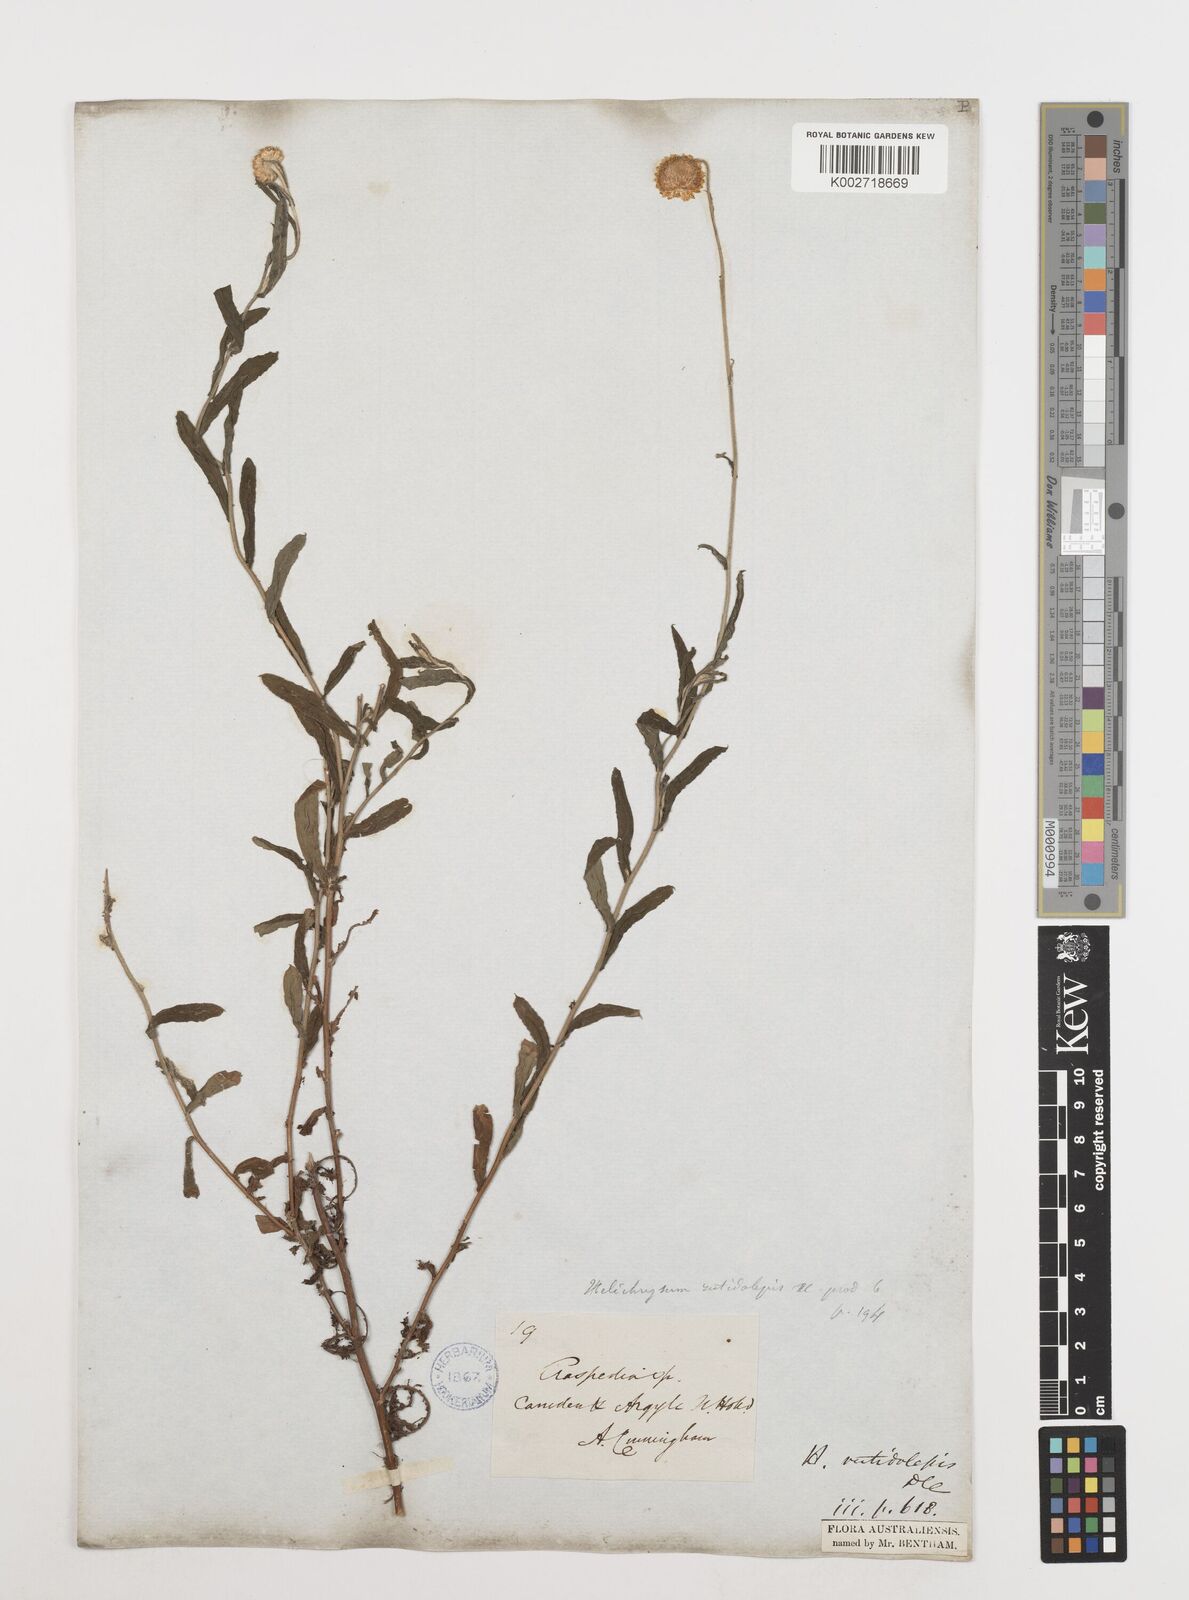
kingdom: Plantae
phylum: Tracheophyta
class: Magnoliopsida
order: Asterales
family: Asteraceae
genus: Coronidium
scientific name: Coronidium rutidolepis
